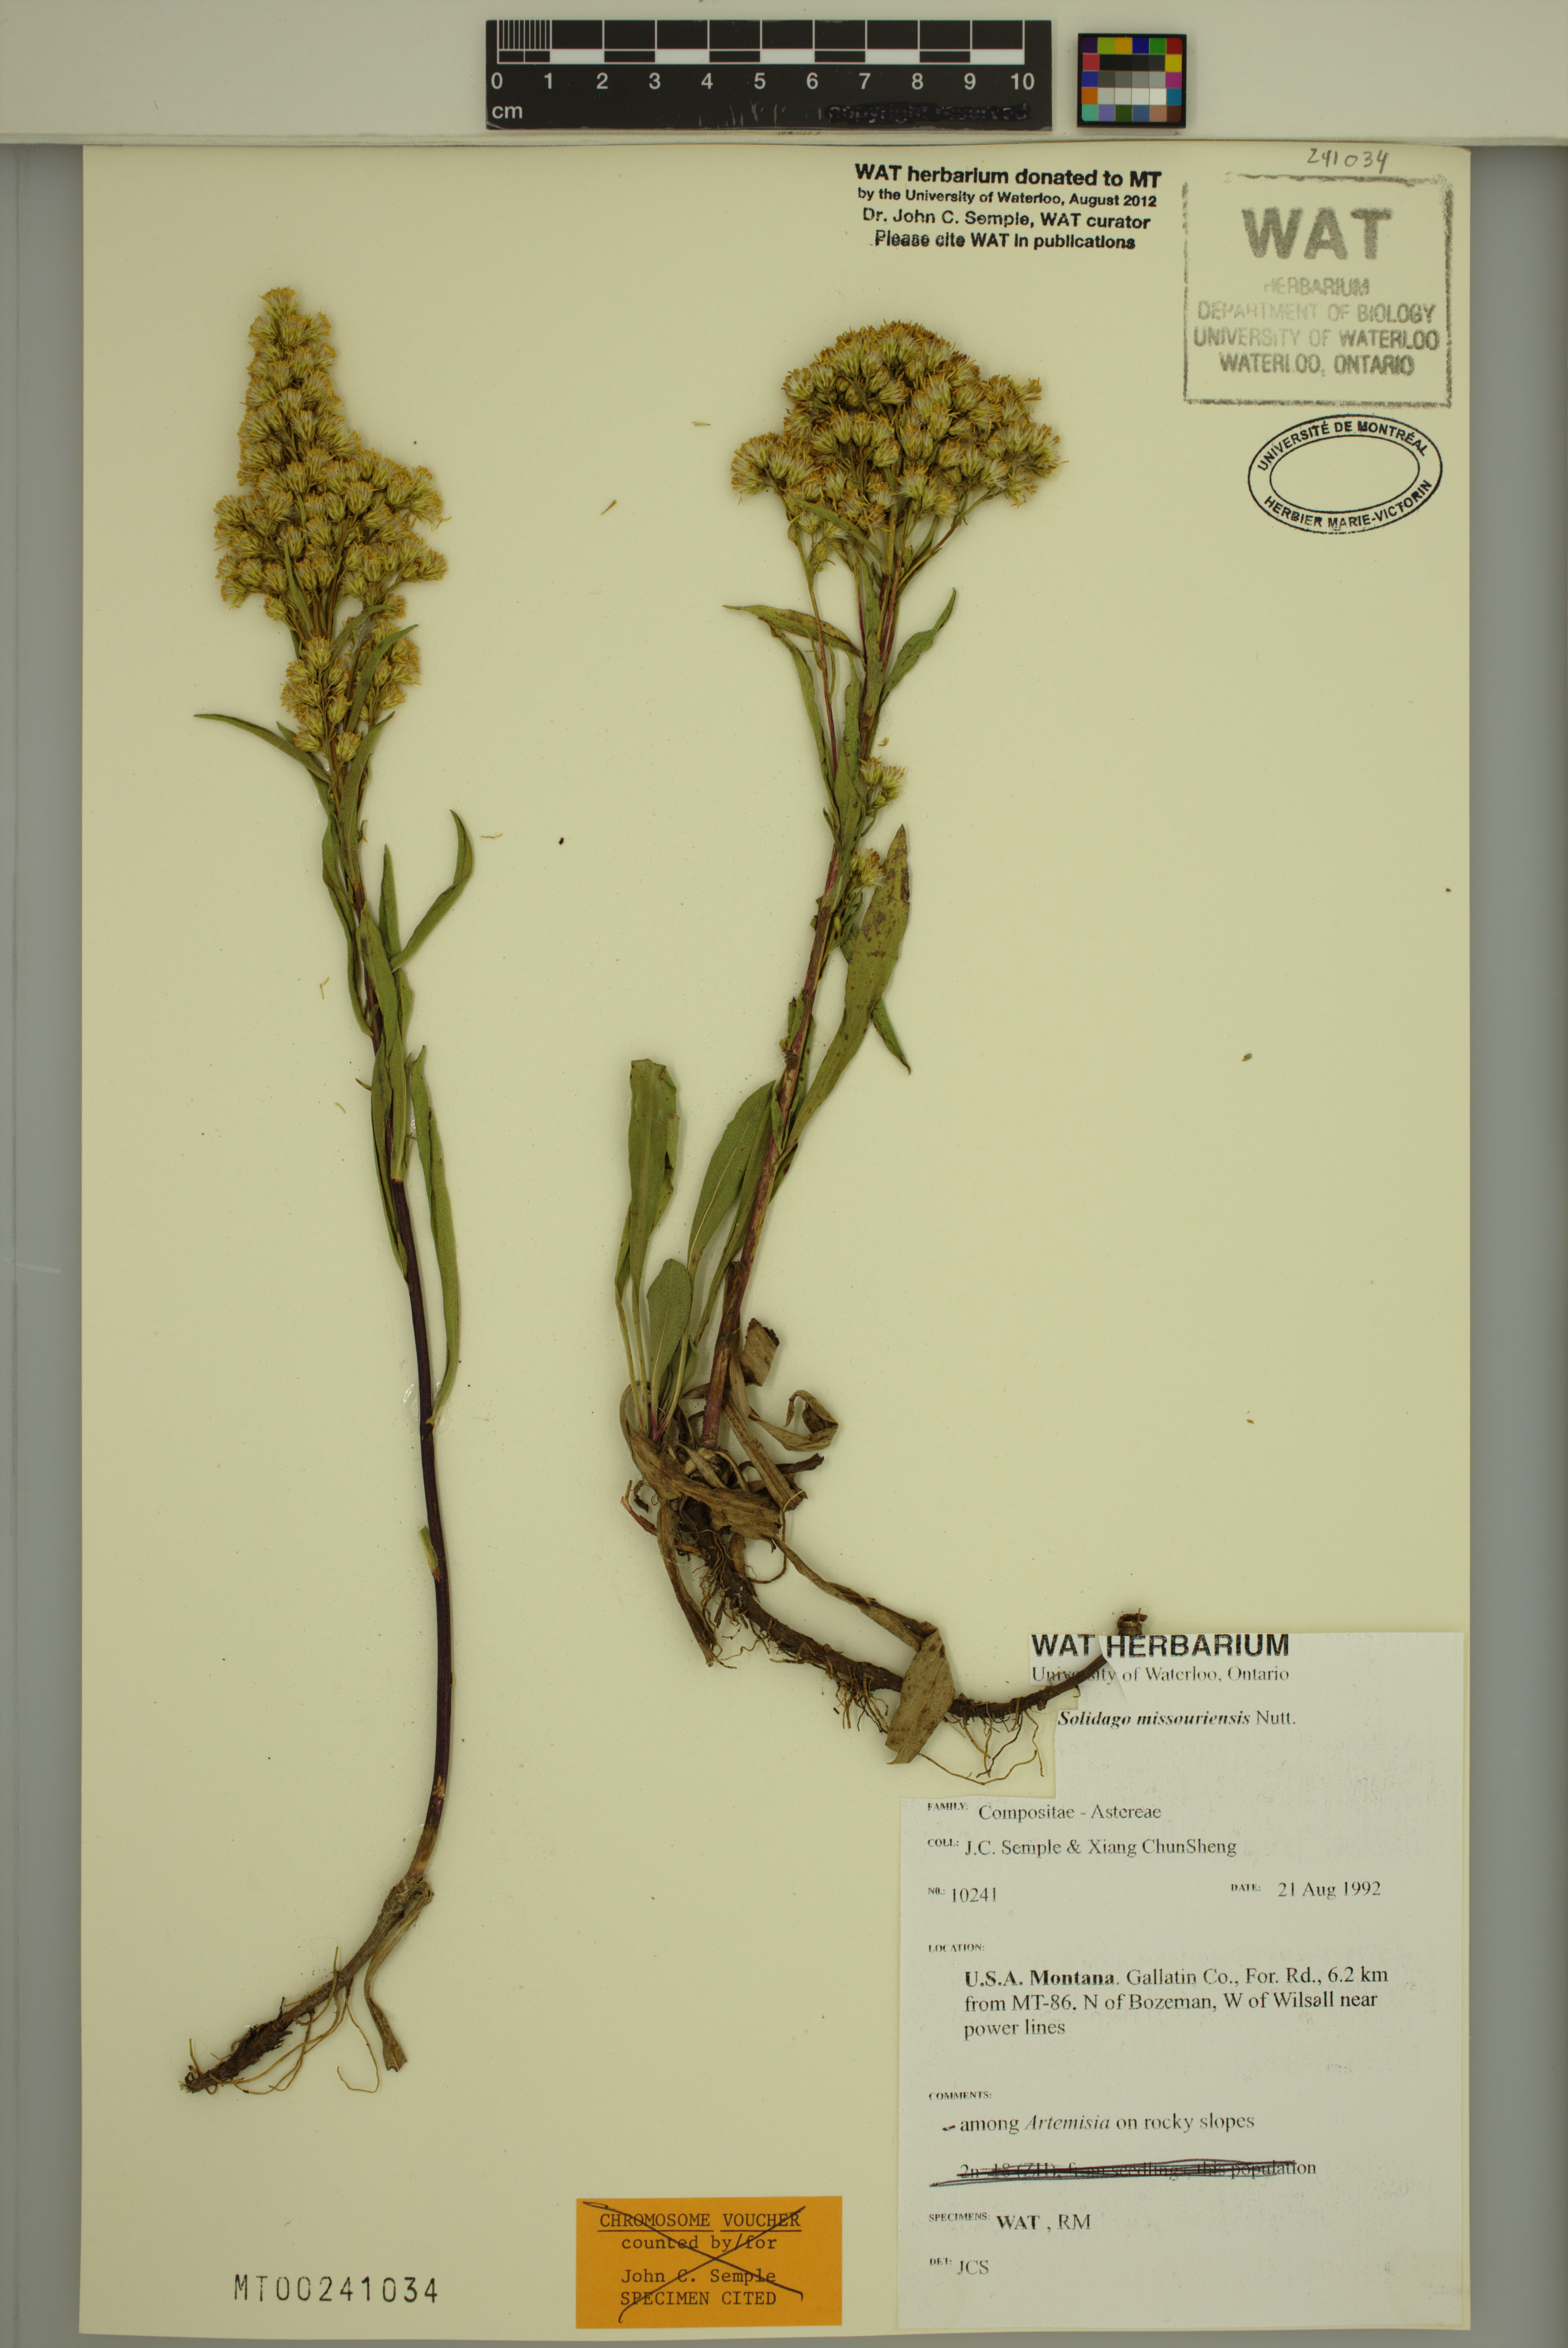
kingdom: Plantae
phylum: Tracheophyta
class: Magnoliopsida
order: Asterales
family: Asteraceae
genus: Solidago
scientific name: Solidago missouriensis
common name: Prairie goldenrod
